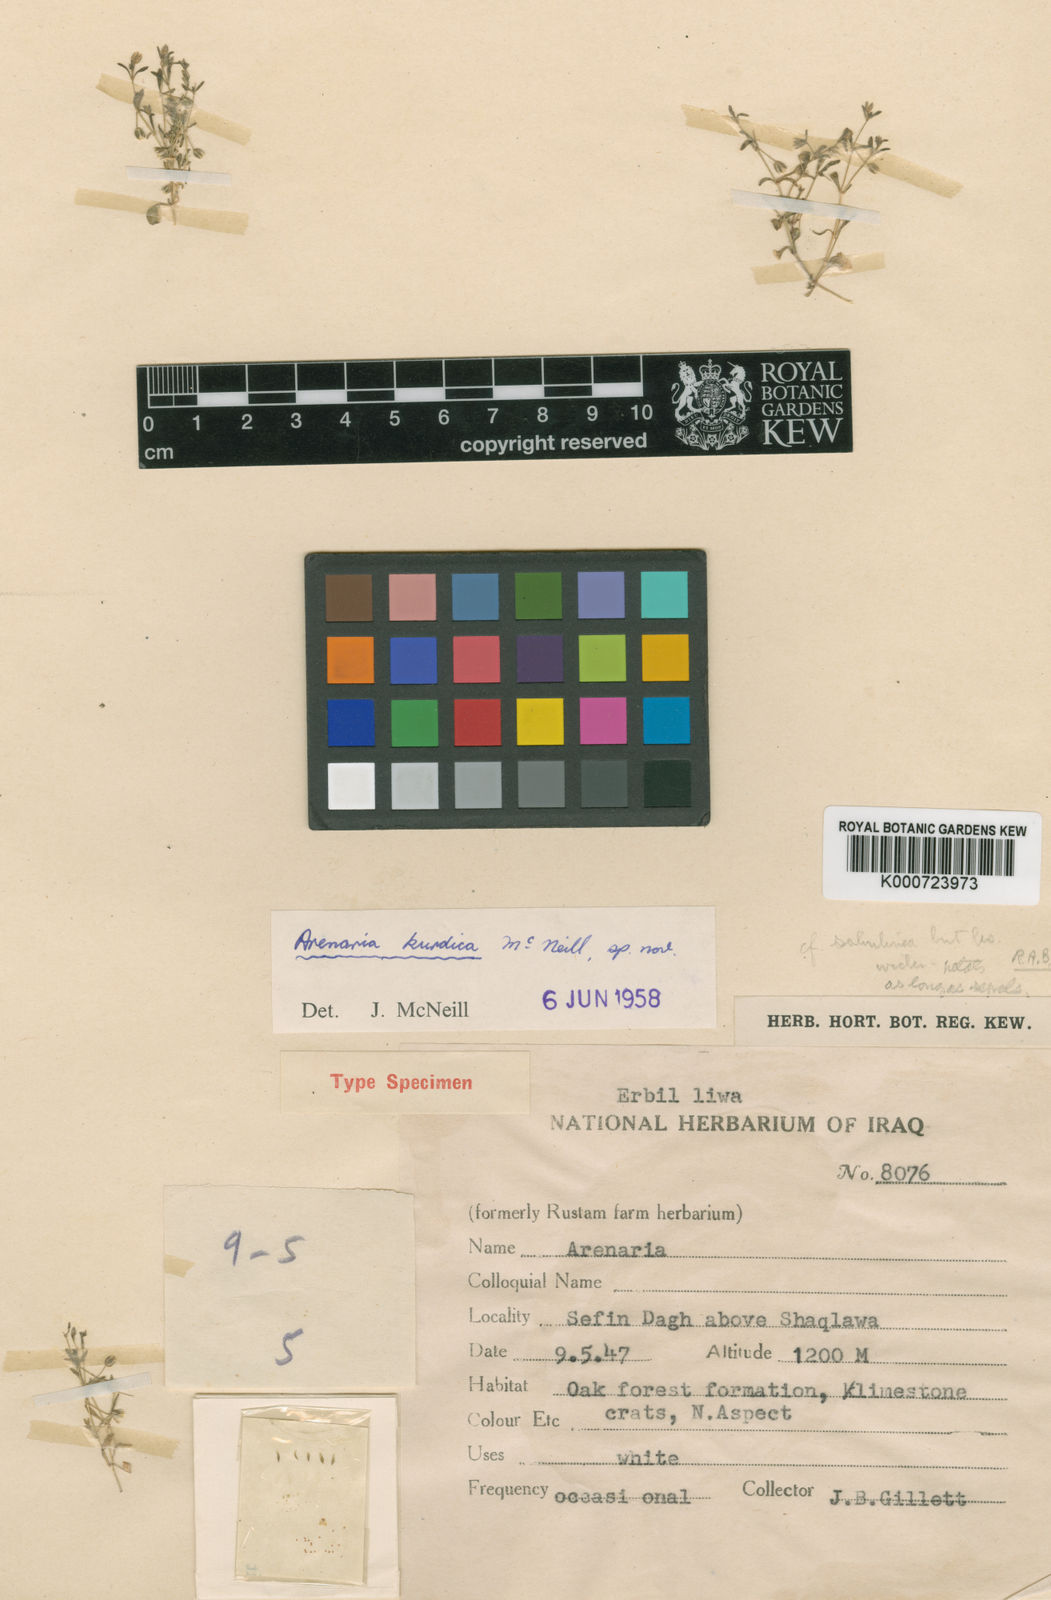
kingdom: Plantae
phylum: Tracheophyta
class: Magnoliopsida
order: Caryophyllales
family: Caryophyllaceae
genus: Arenaria
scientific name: Arenaria kurdica
